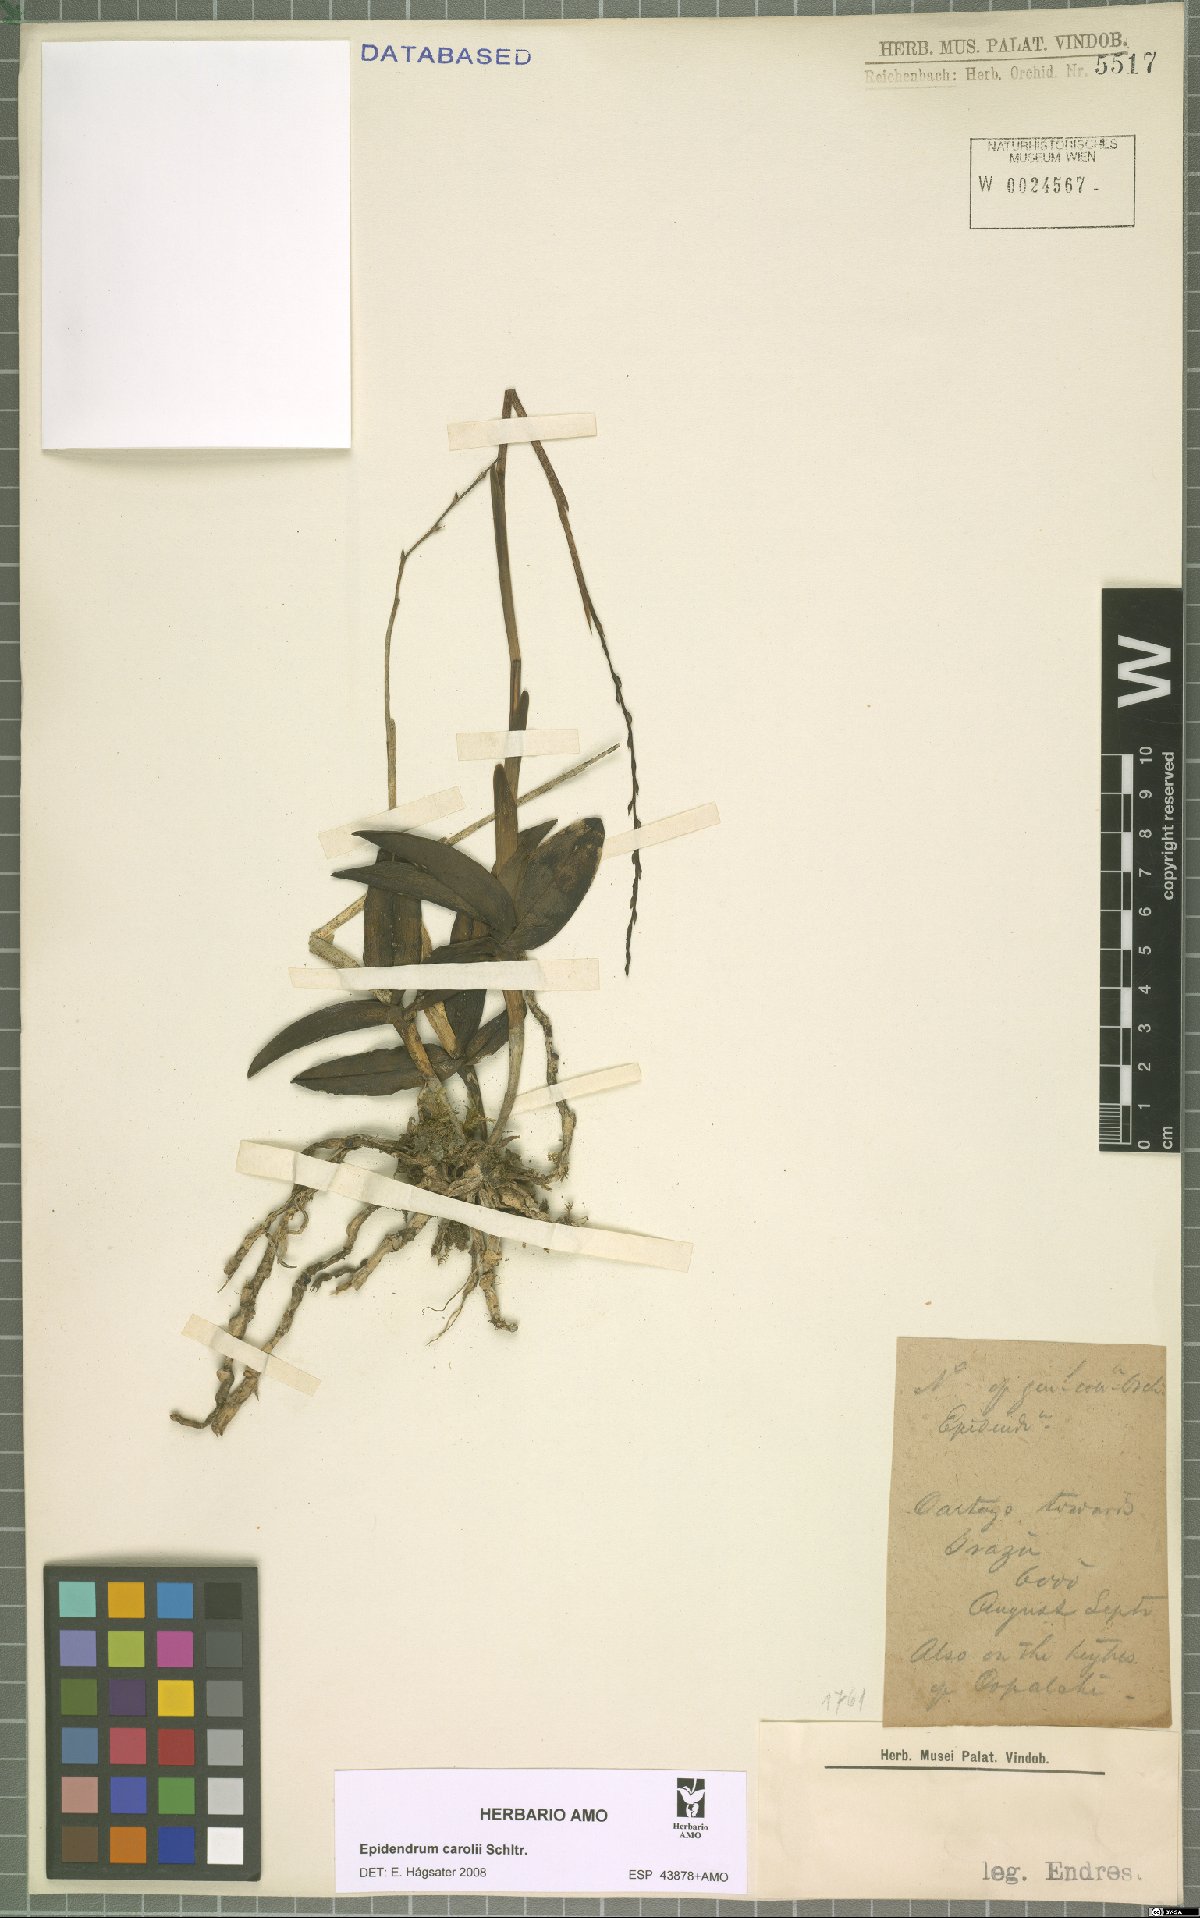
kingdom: Plantae
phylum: Tracheophyta
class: Liliopsida
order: Asparagales
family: Orchidaceae
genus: Epidendrum
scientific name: Epidendrum caroli
